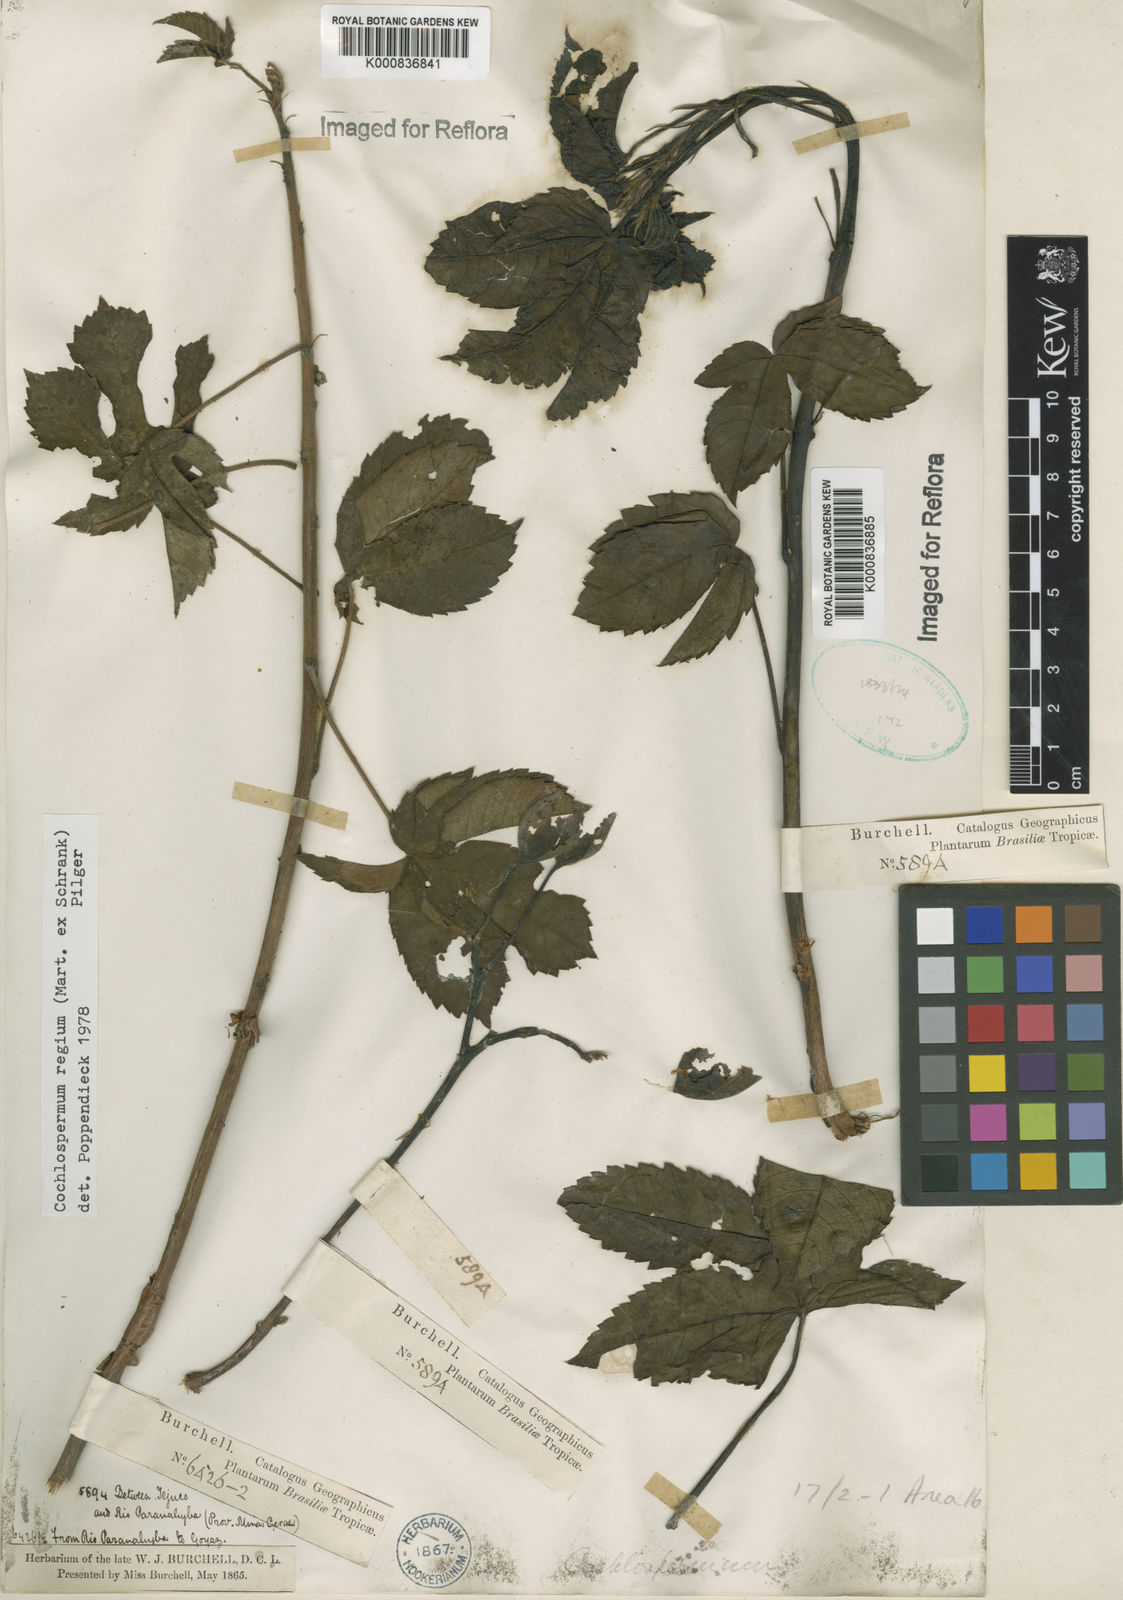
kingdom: Plantae
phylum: Tracheophyta
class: Magnoliopsida
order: Malvales
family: Cochlospermaceae
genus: Cochlospermum
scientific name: Cochlospermum regium
